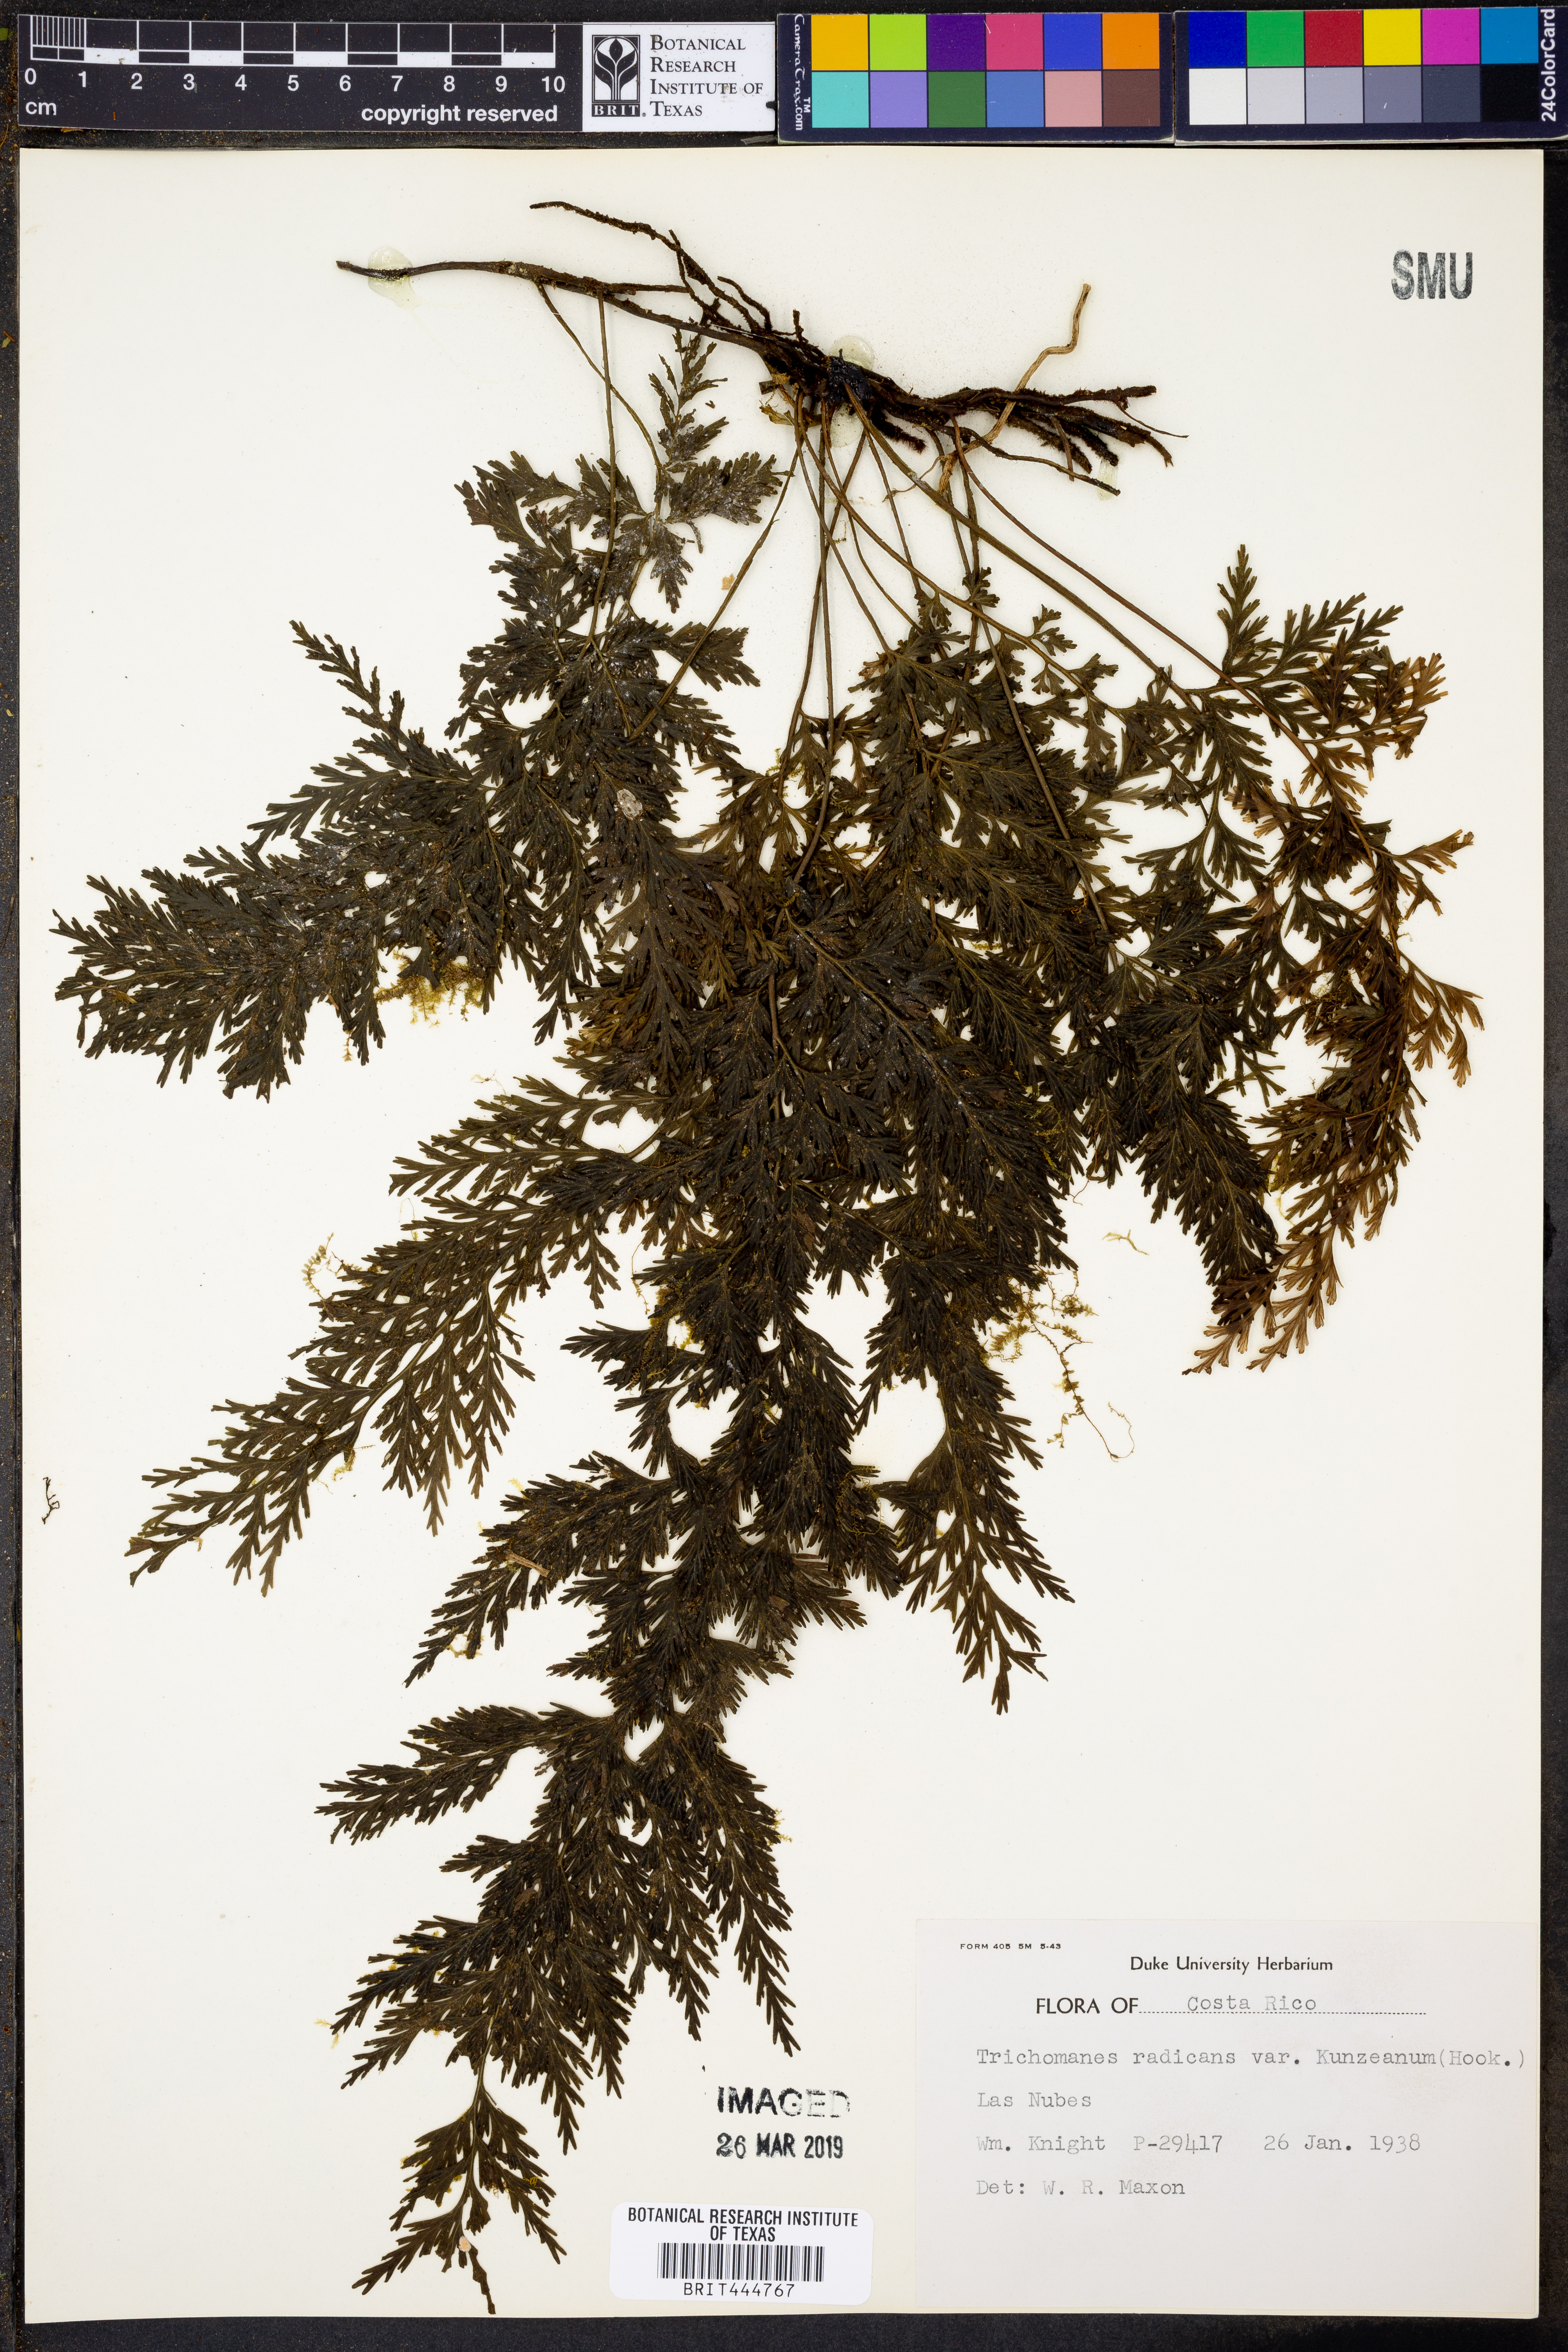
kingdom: Plantae
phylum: Tracheophyta
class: Polypodiopsida
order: Hymenophyllales
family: Hymenophyllaceae
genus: Vandenboschia
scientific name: Vandenboschia radicans
